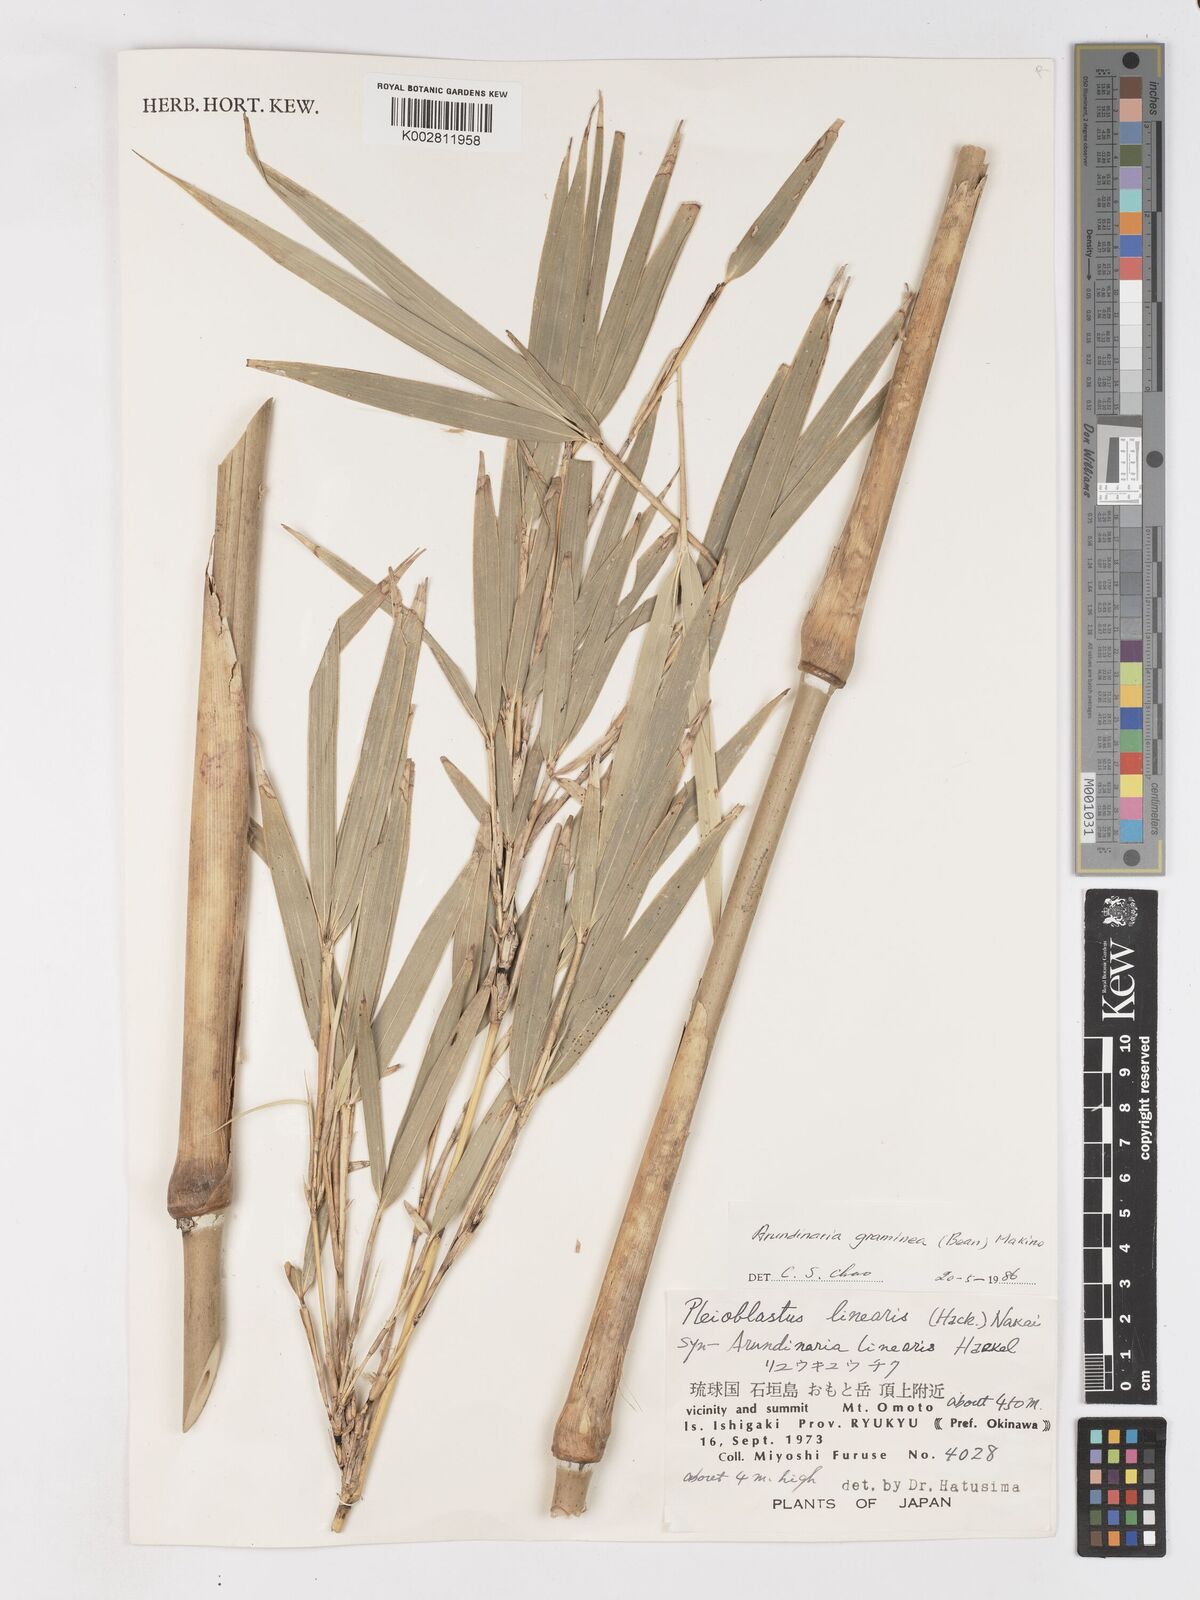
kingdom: Plantae
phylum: Tracheophyta
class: Liliopsida
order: Poales
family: Poaceae
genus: Pleioblastus
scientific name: Pleioblastus gramineus
